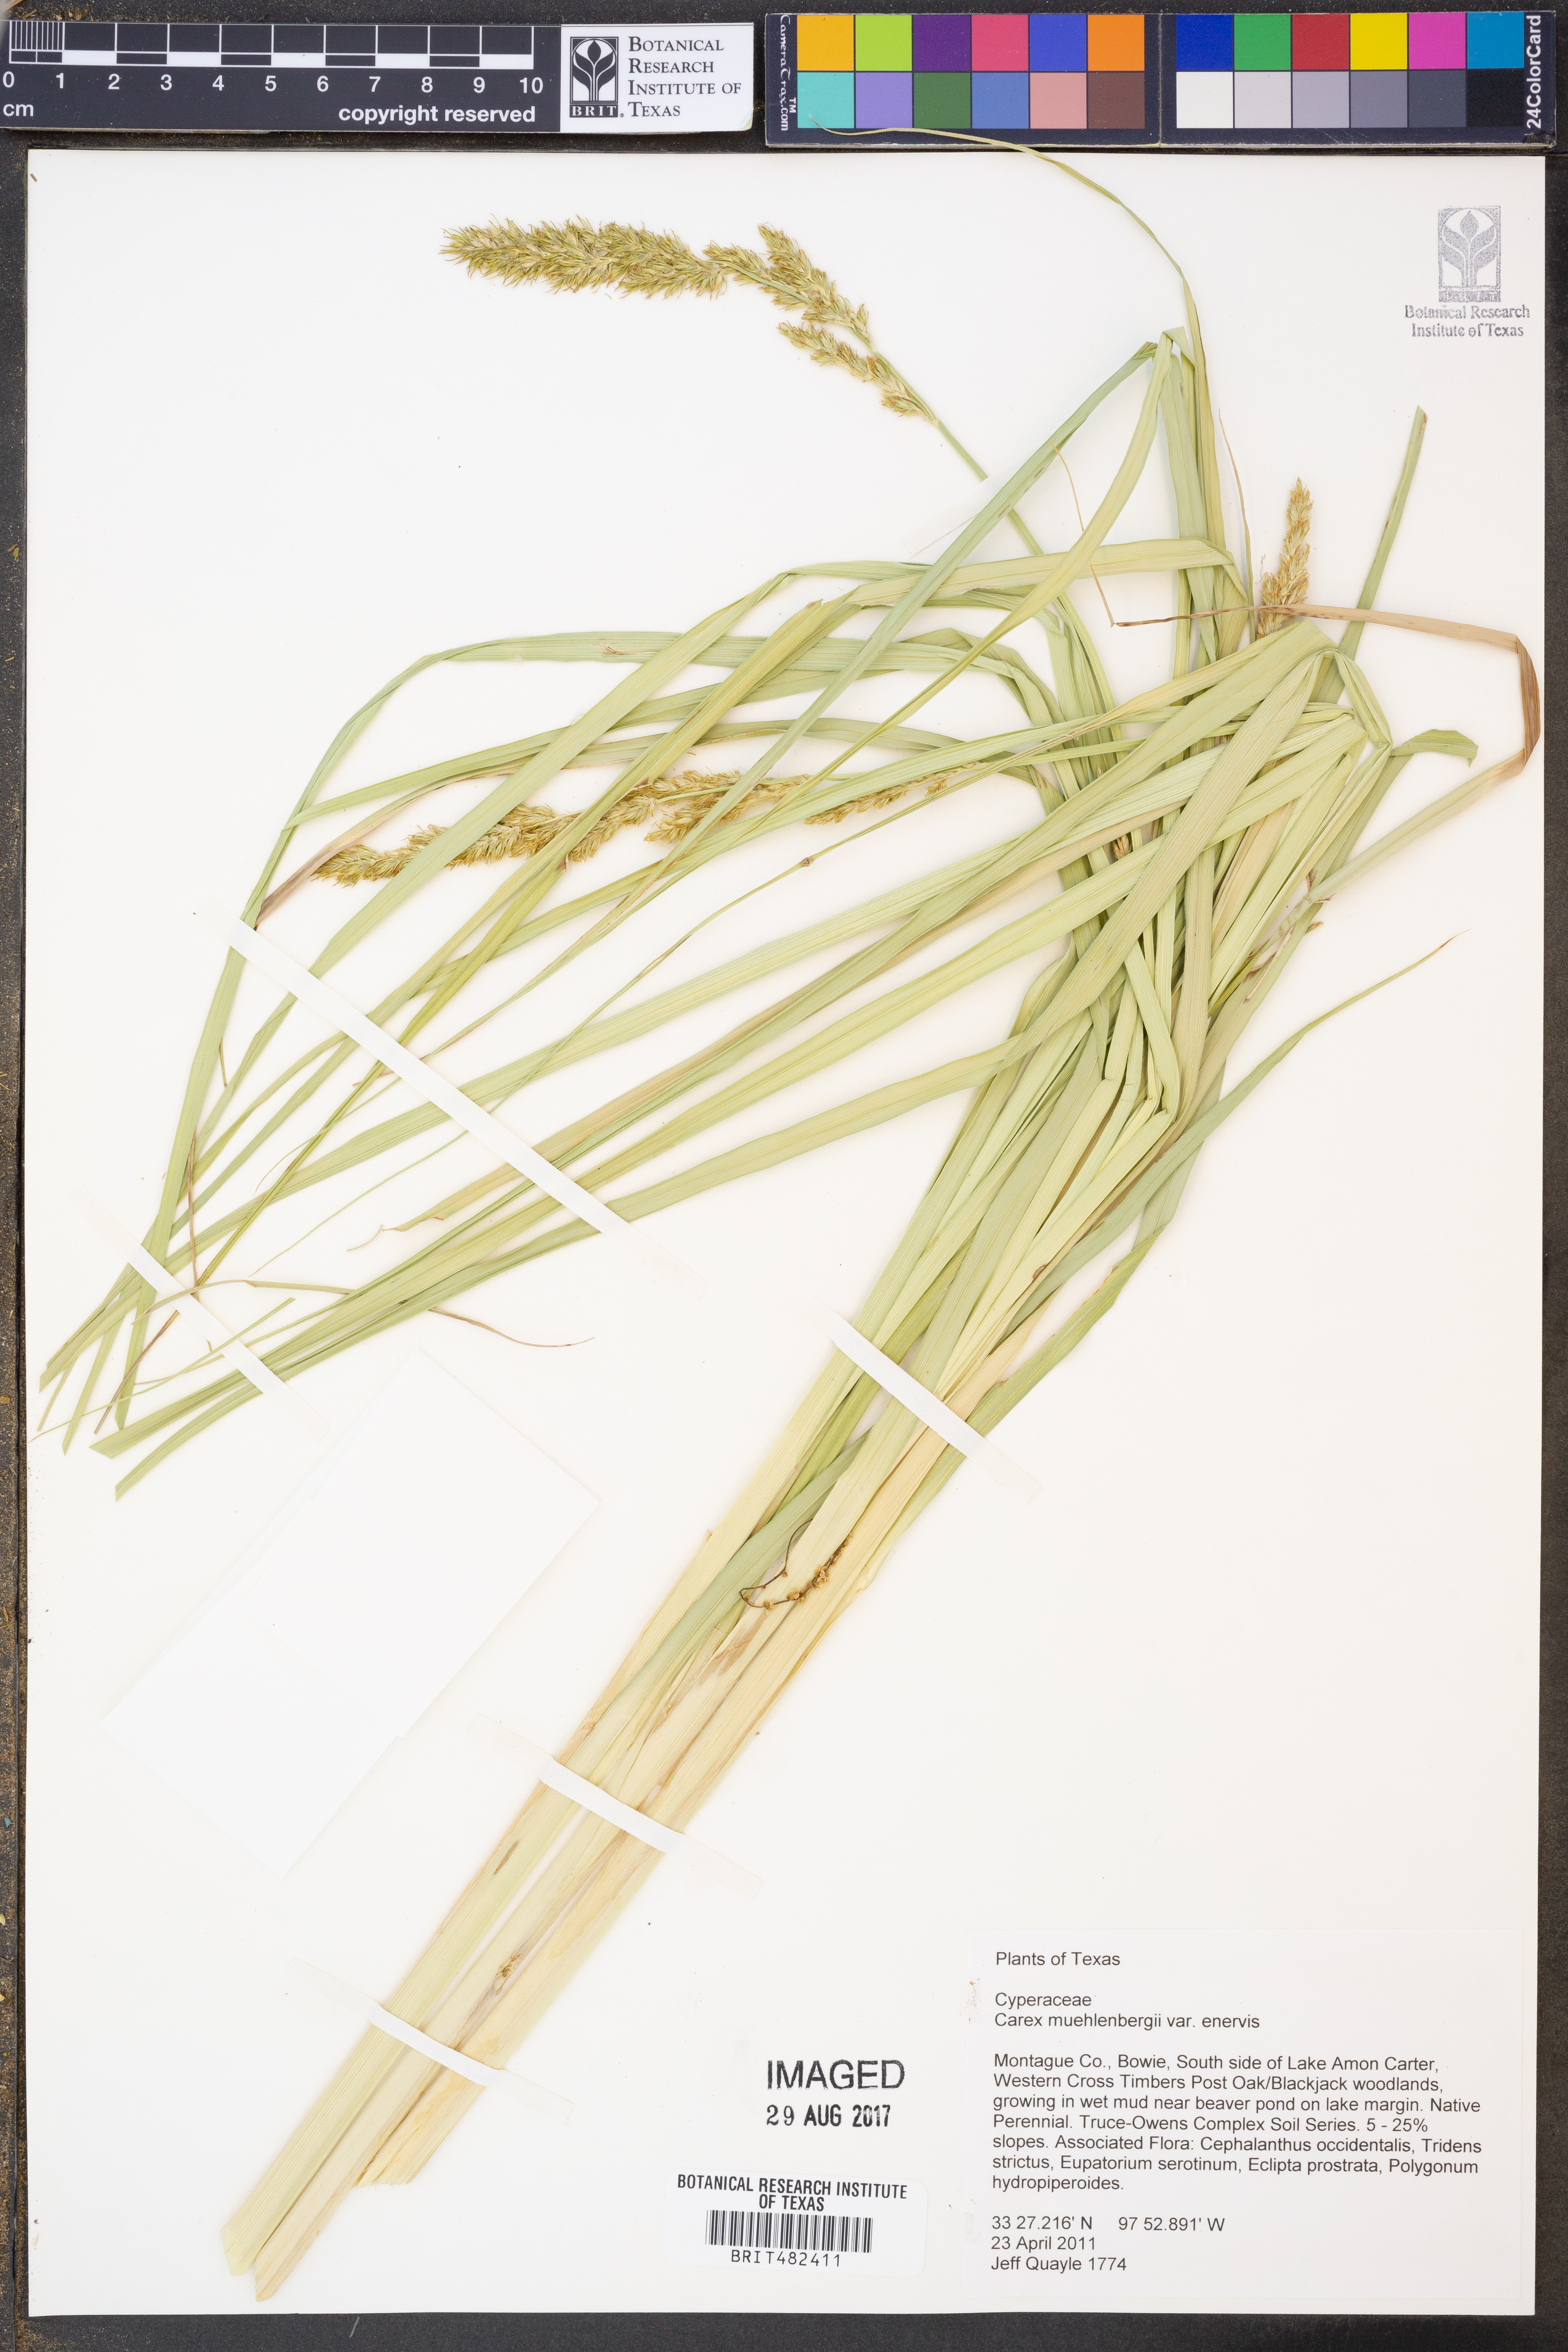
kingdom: Plantae
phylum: Tracheophyta
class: Liliopsida
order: Poales
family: Cyperaceae
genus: Carex
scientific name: Carex muehlenbergii
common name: Muhlenberg's bracted sedge
